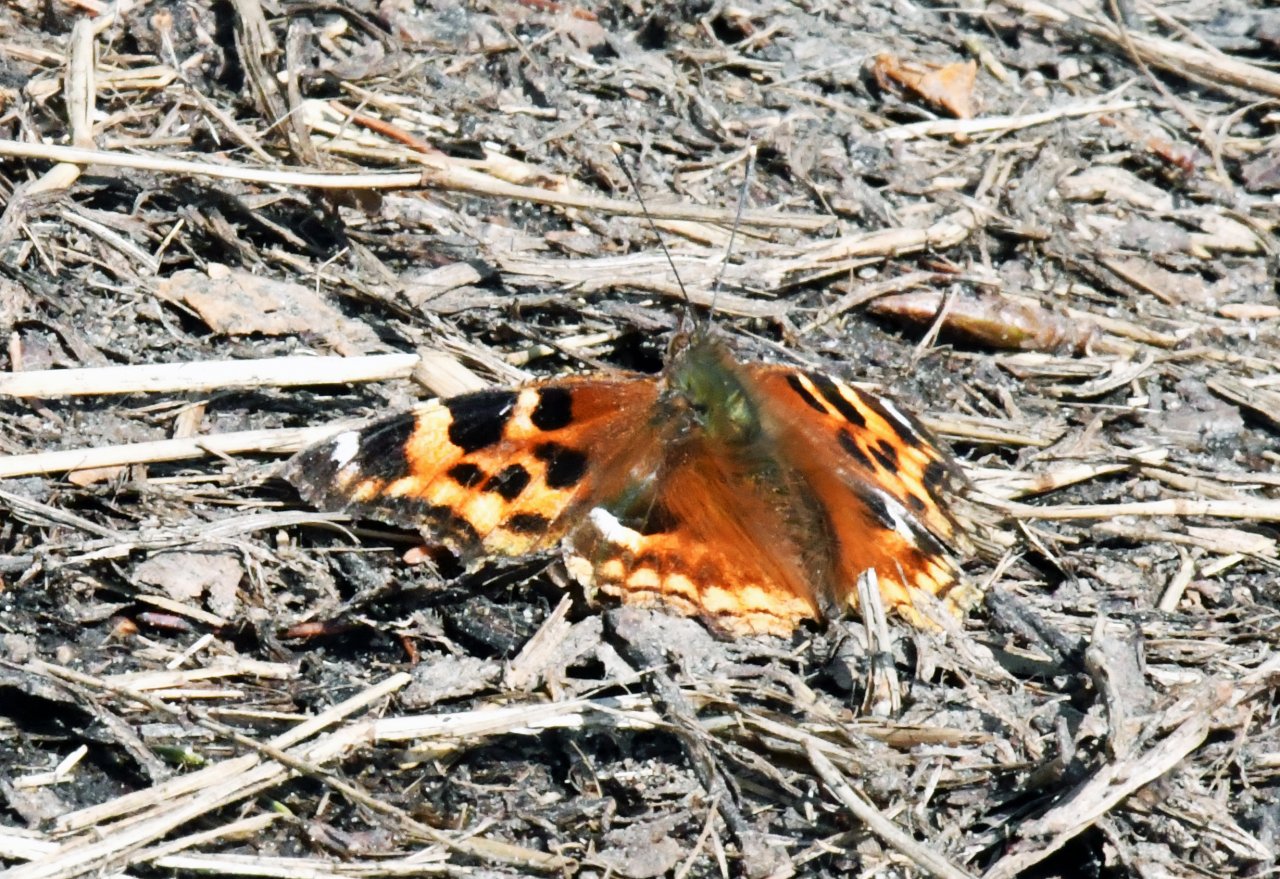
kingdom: Animalia
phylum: Arthropoda
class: Insecta
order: Lepidoptera
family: Nymphalidae
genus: Polygonia
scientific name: Polygonia vaualbum
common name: Compton Tortoiseshell
